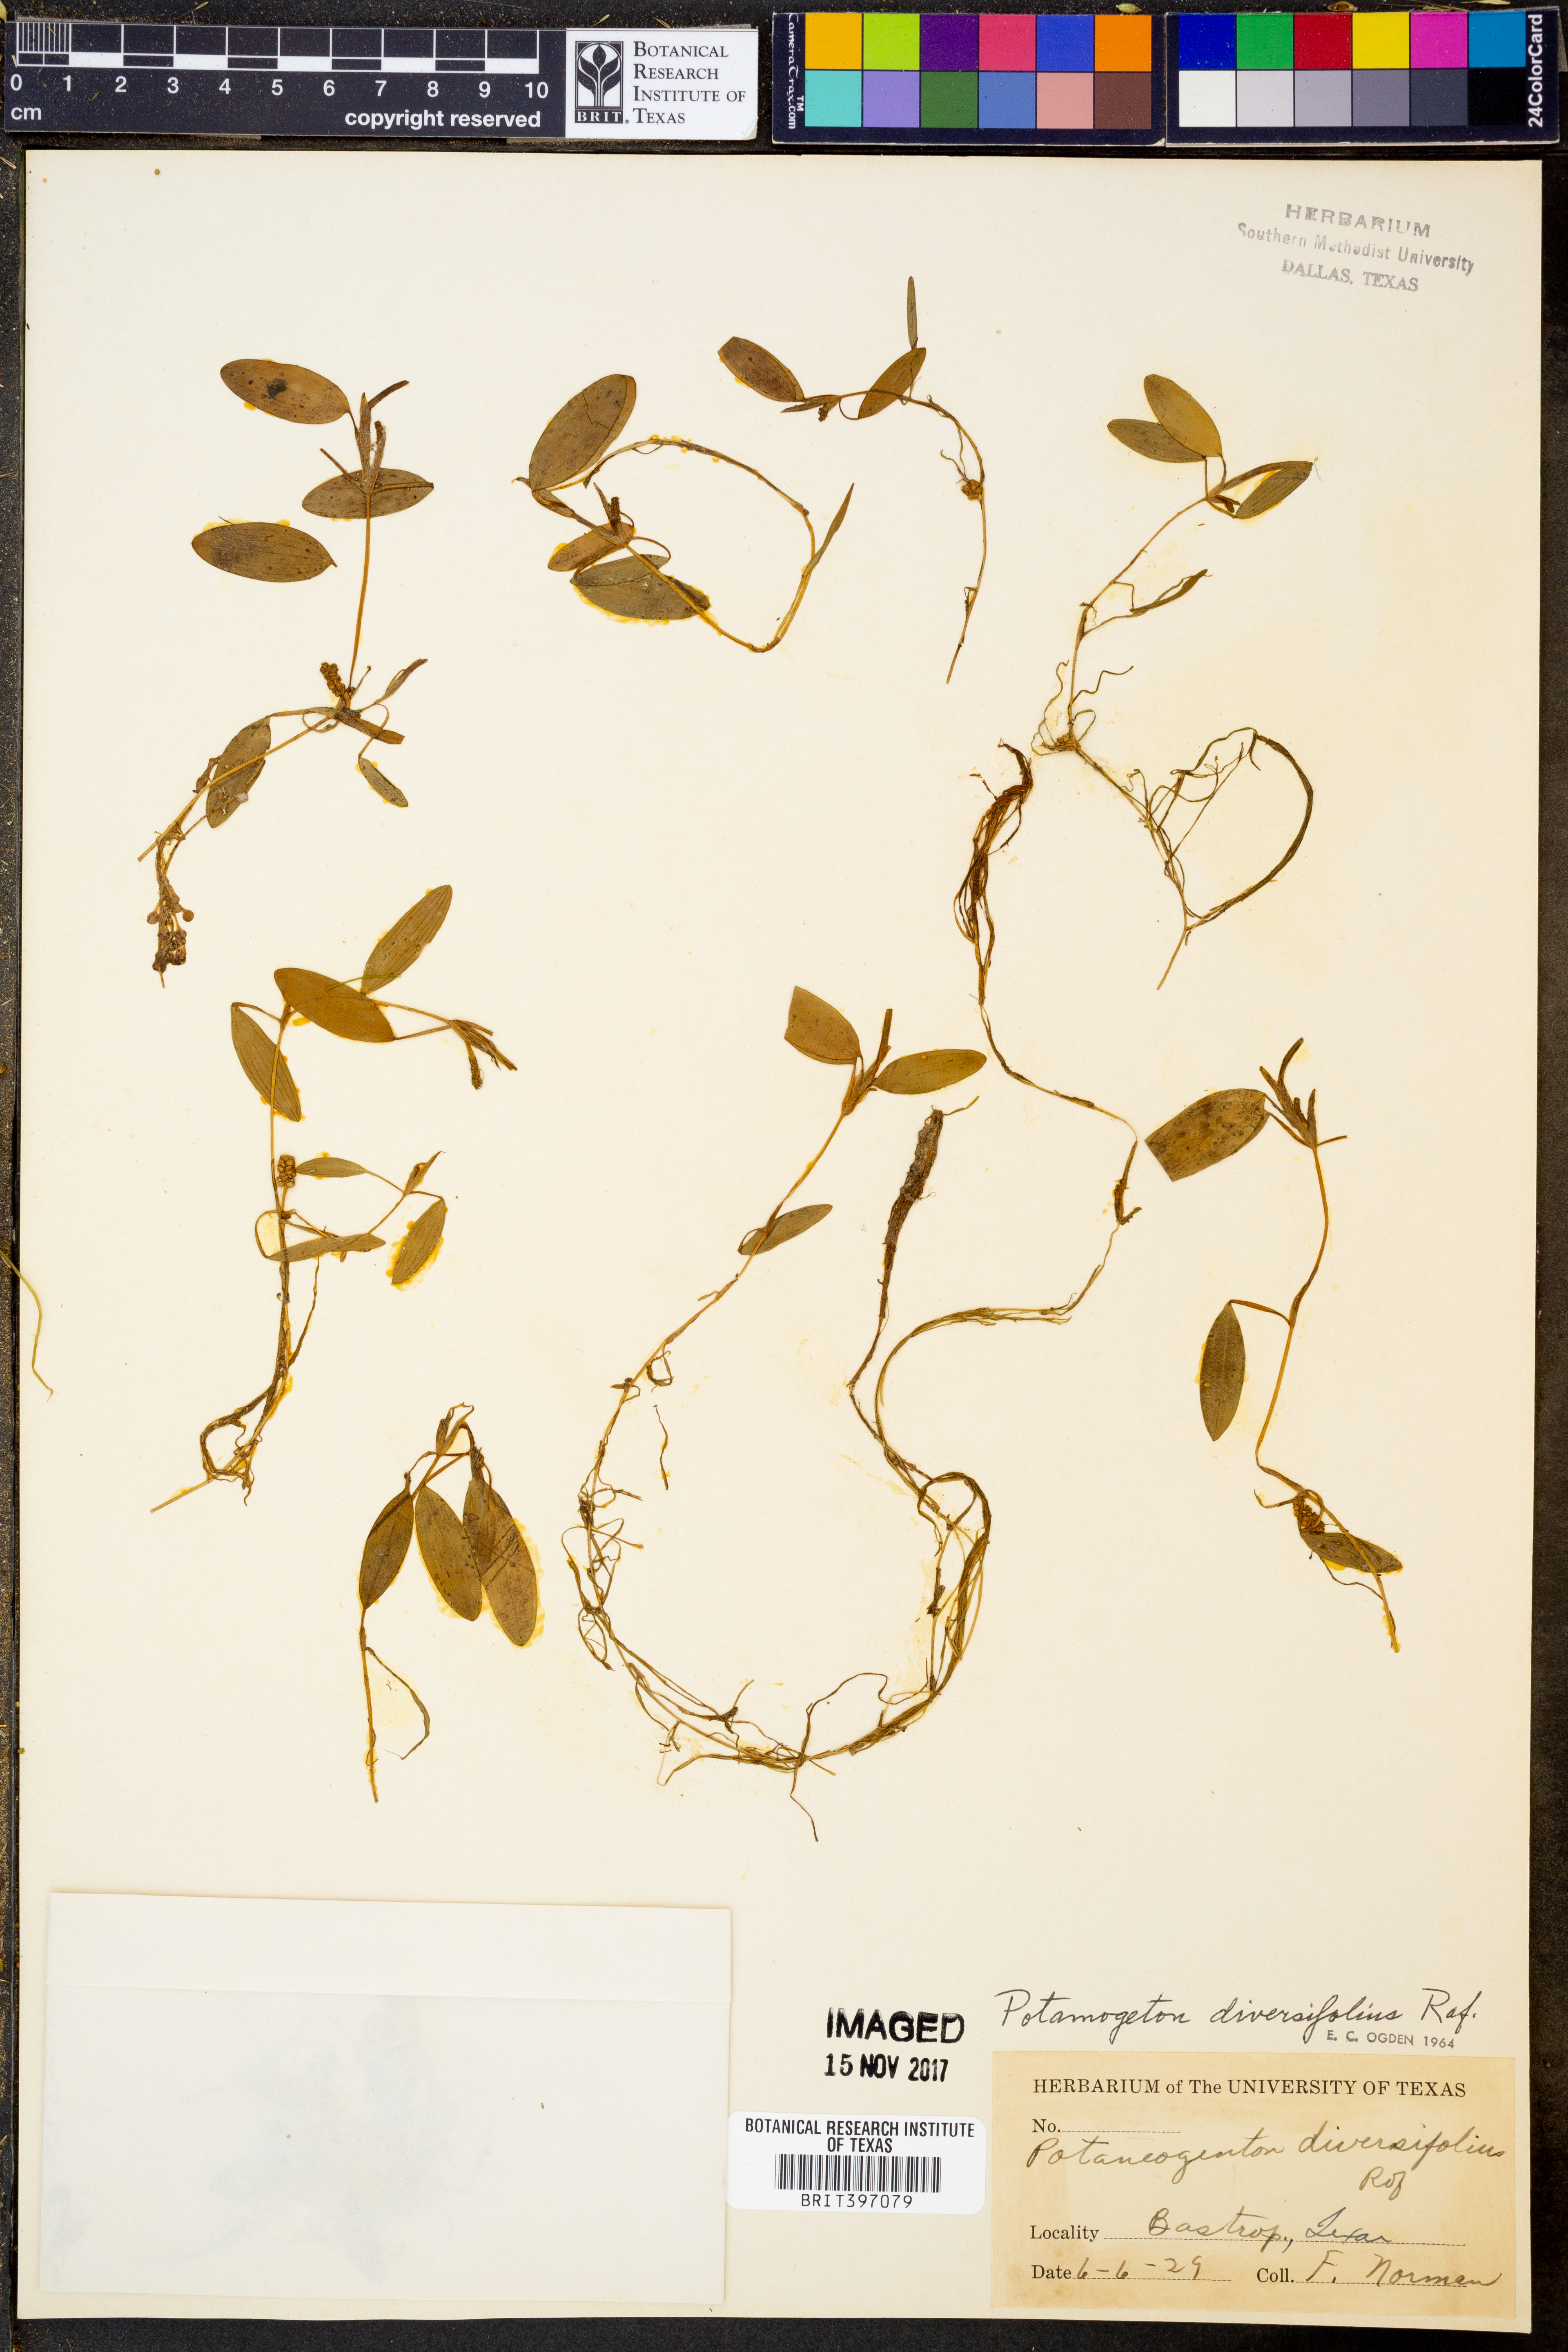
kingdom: Plantae
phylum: Tracheophyta
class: Liliopsida
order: Alismatales
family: Potamogetonaceae
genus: Potamogeton
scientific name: Potamogeton diversifolius
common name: Water-thread pondweed
